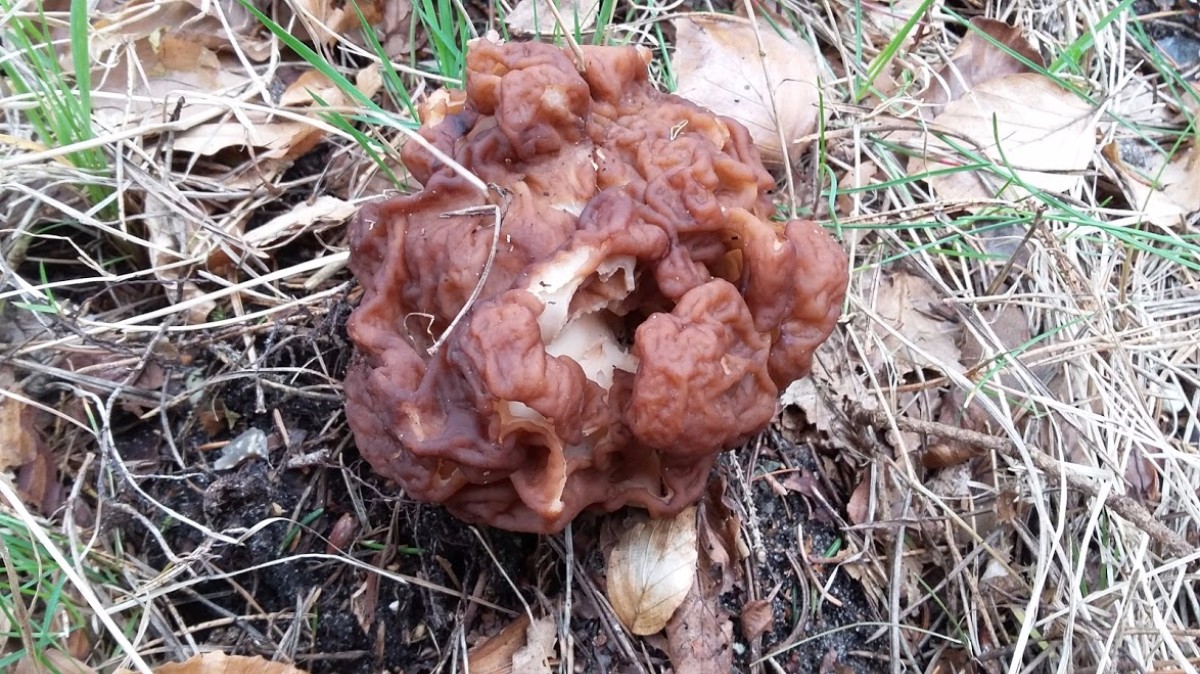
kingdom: Fungi
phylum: Ascomycota
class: Pezizomycetes
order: Pezizales
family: Discinaceae
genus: Gyromitra
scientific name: Gyromitra esculenta
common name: ægte stenmorkel
